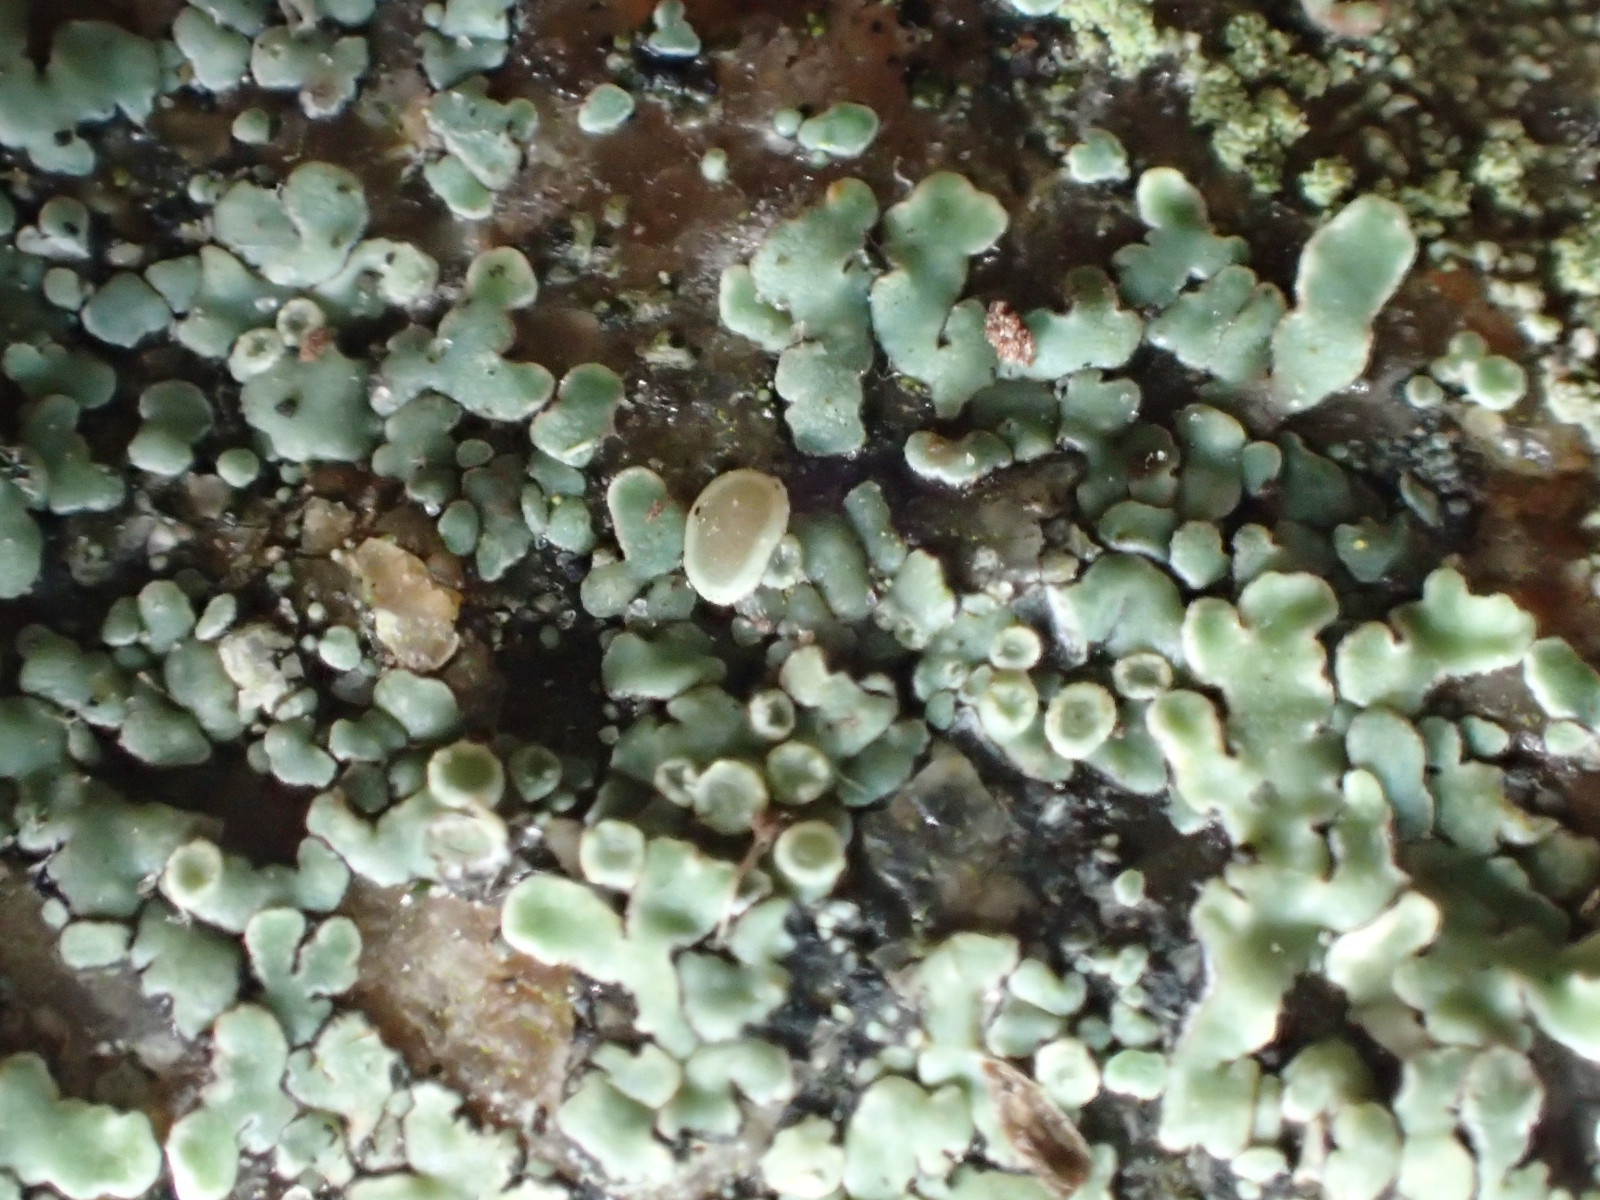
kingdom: Fungi
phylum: Ascomycota
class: Lecanoromycetes
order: Lecanorales
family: Lecanoraceae
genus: Protoparmeliopsis
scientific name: Protoparmeliopsis muralis
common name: randfliget kantskivelav
